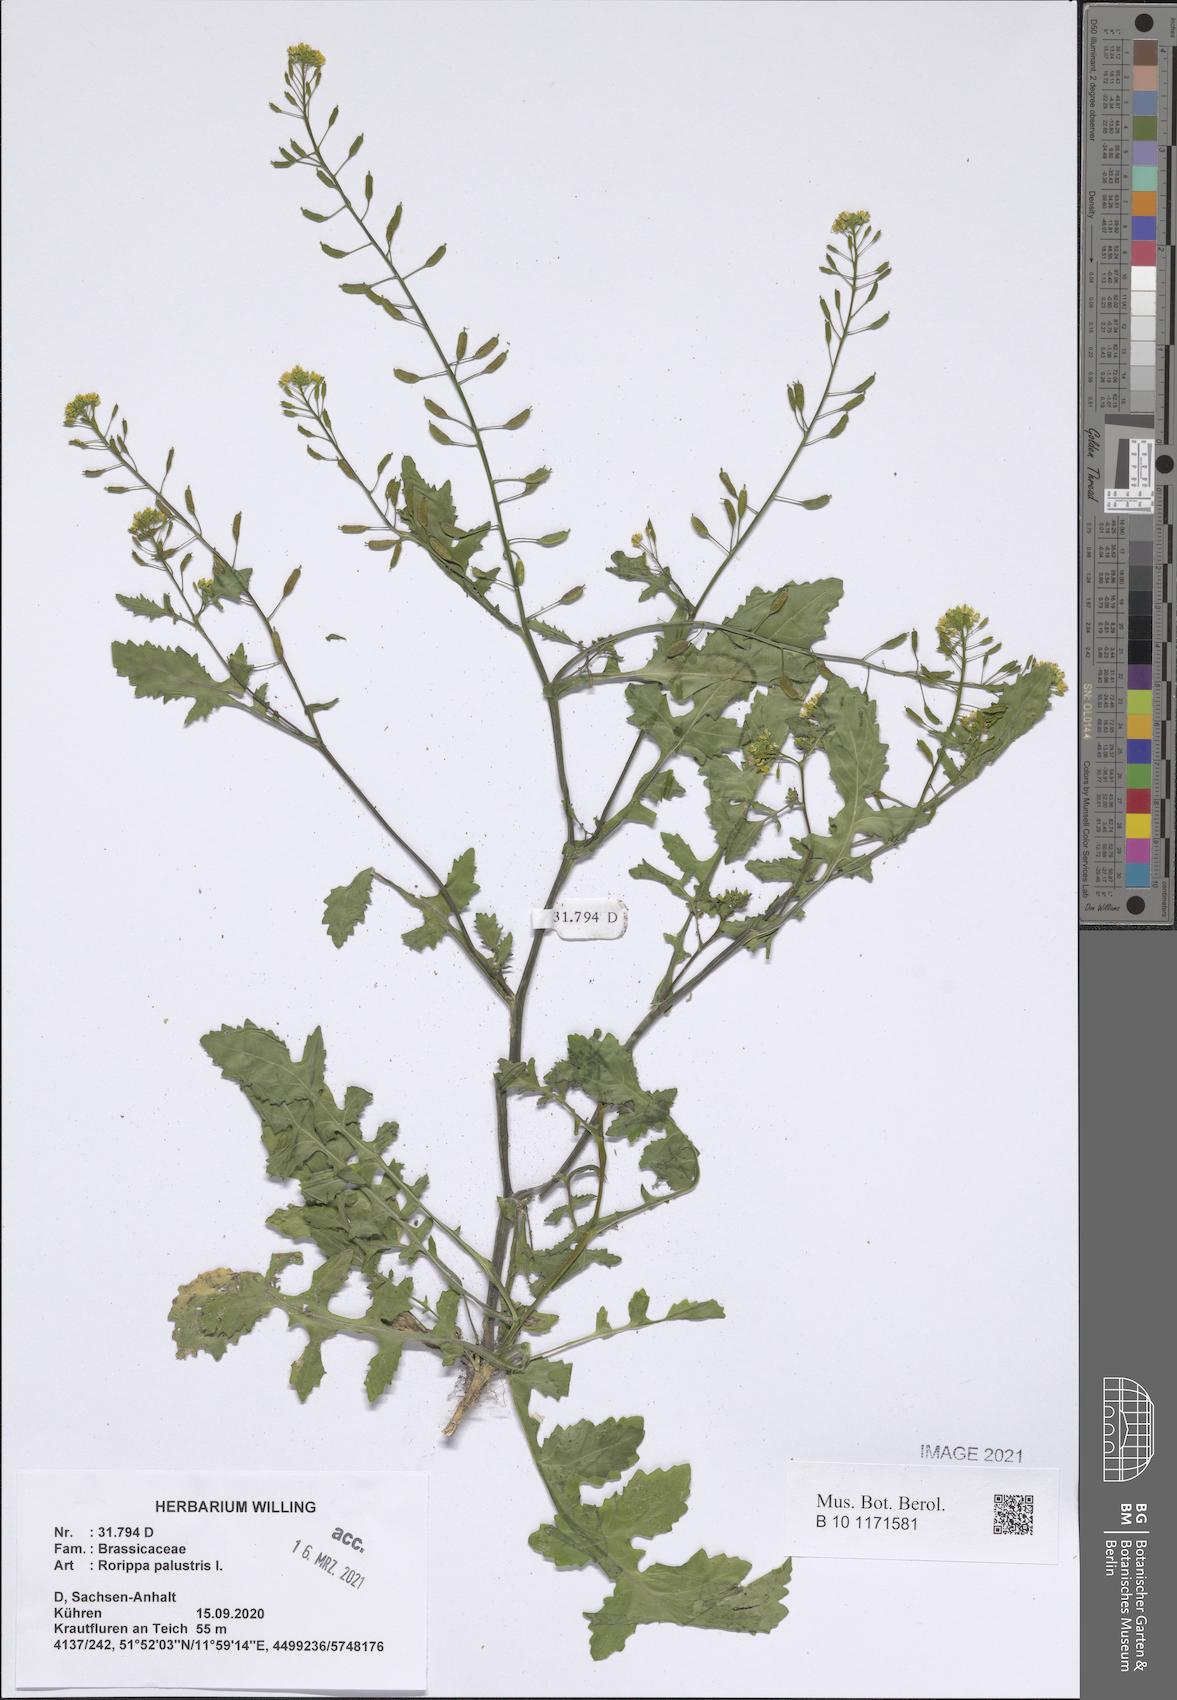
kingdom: Plantae
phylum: Tracheophyta
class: Magnoliopsida
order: Brassicales
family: Brassicaceae
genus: Rorippa
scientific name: Rorippa palustris
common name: Marsh yellow-cress
